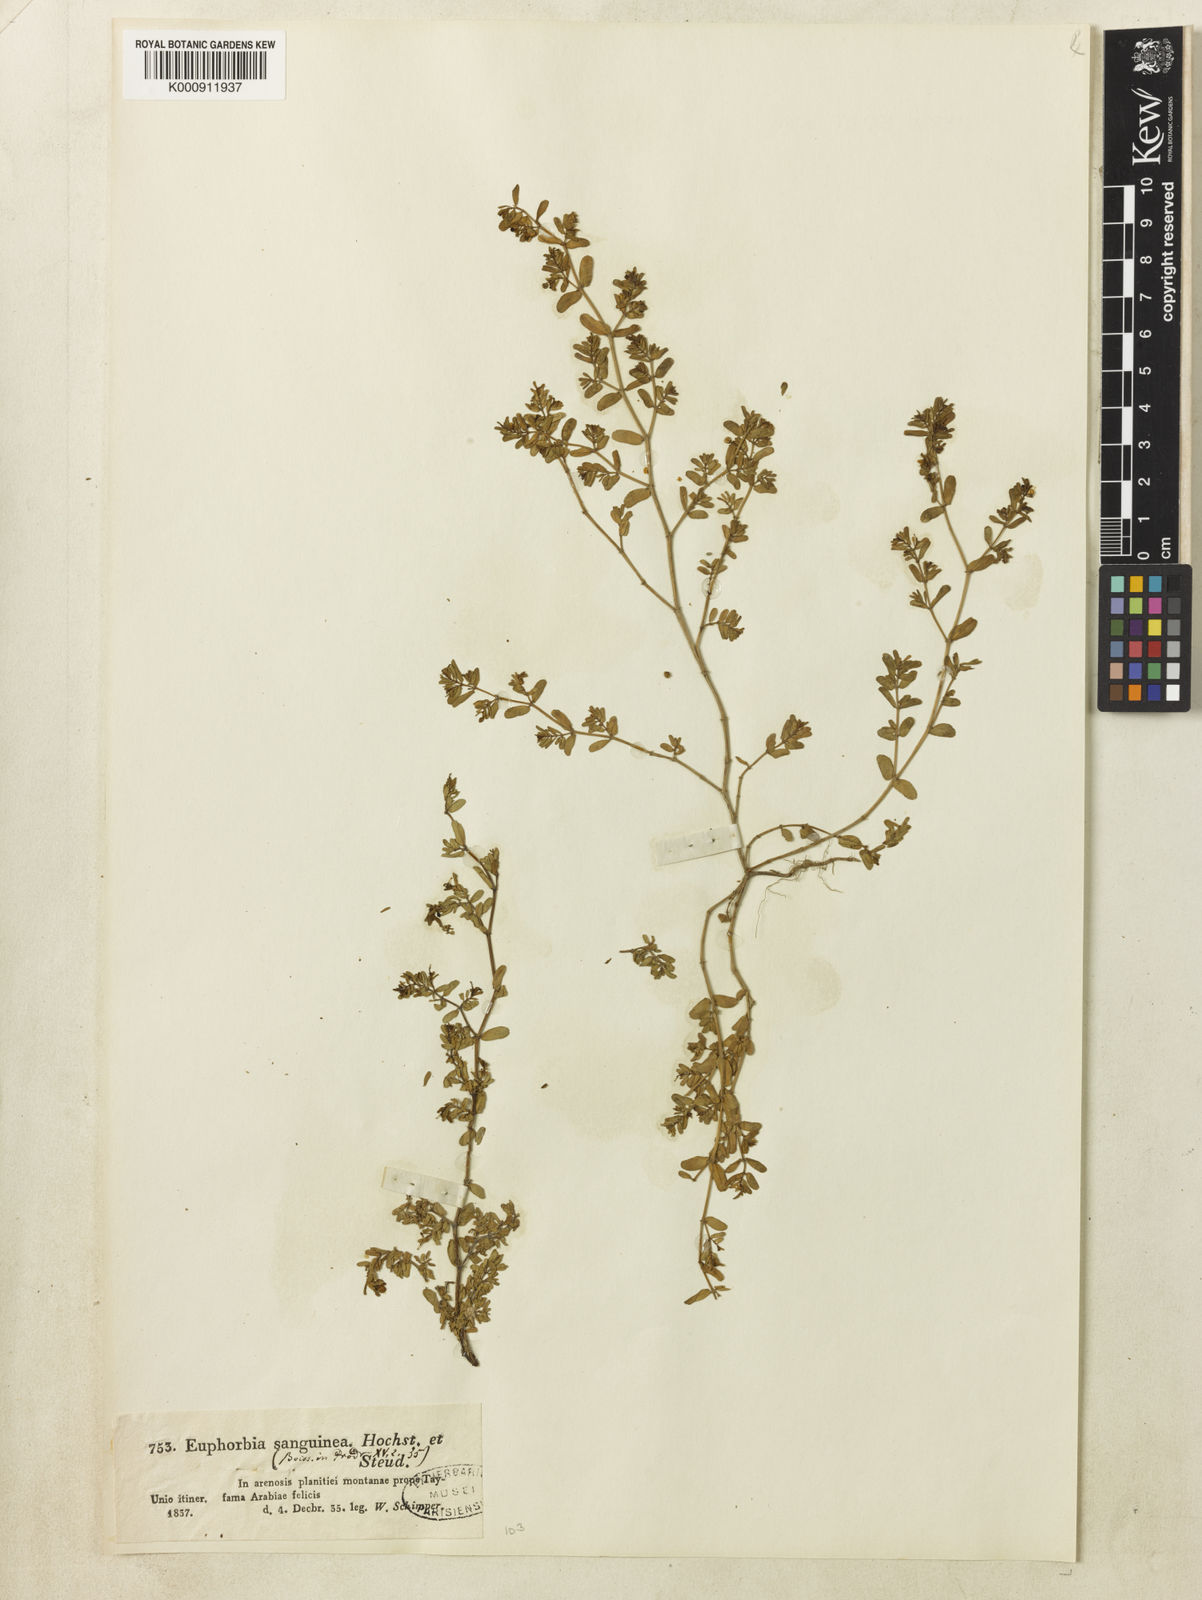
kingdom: Plantae
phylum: Tracheophyta
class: Magnoliopsida
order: Malpighiales
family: Euphorbiaceae
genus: Euphorbia
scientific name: Euphorbia
